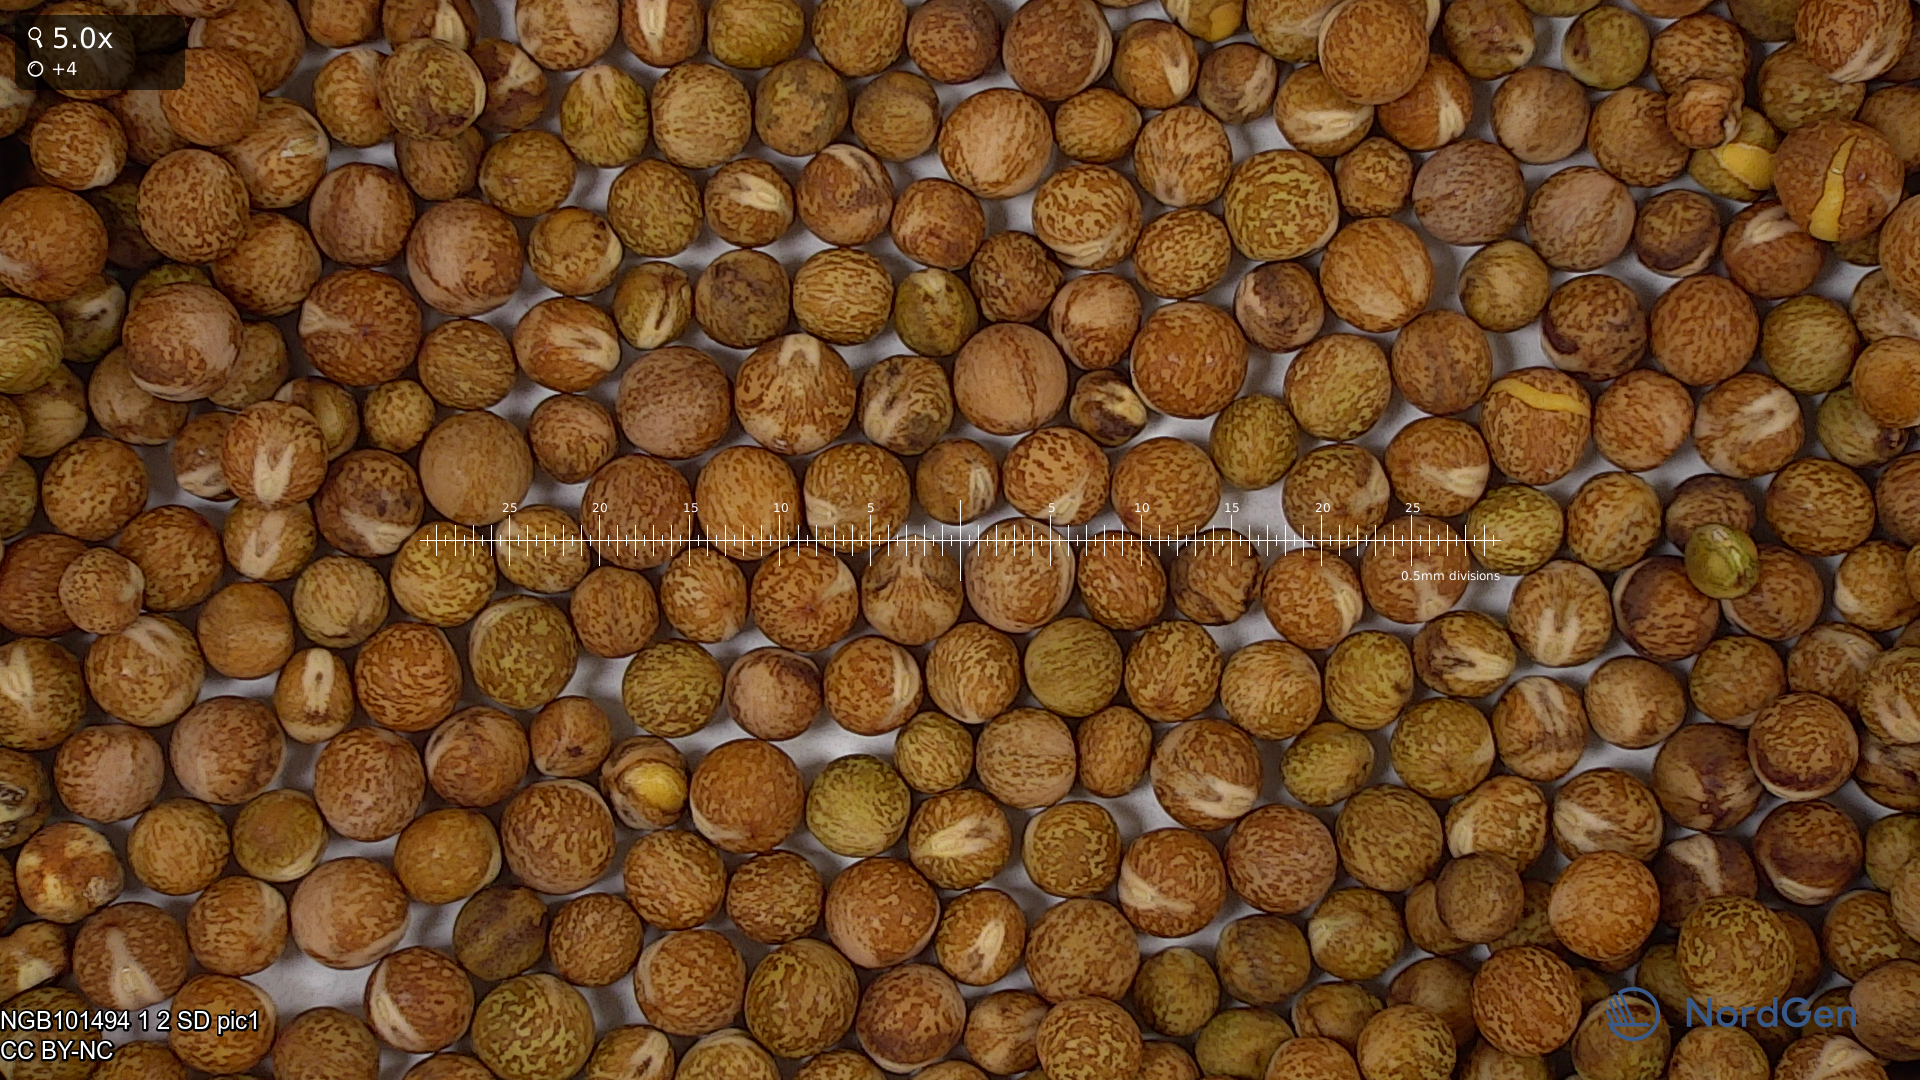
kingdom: Plantae
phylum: Tracheophyta
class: Magnoliopsida
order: Fabales
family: Fabaceae
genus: Lathyrus
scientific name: Lathyrus oleraceus
